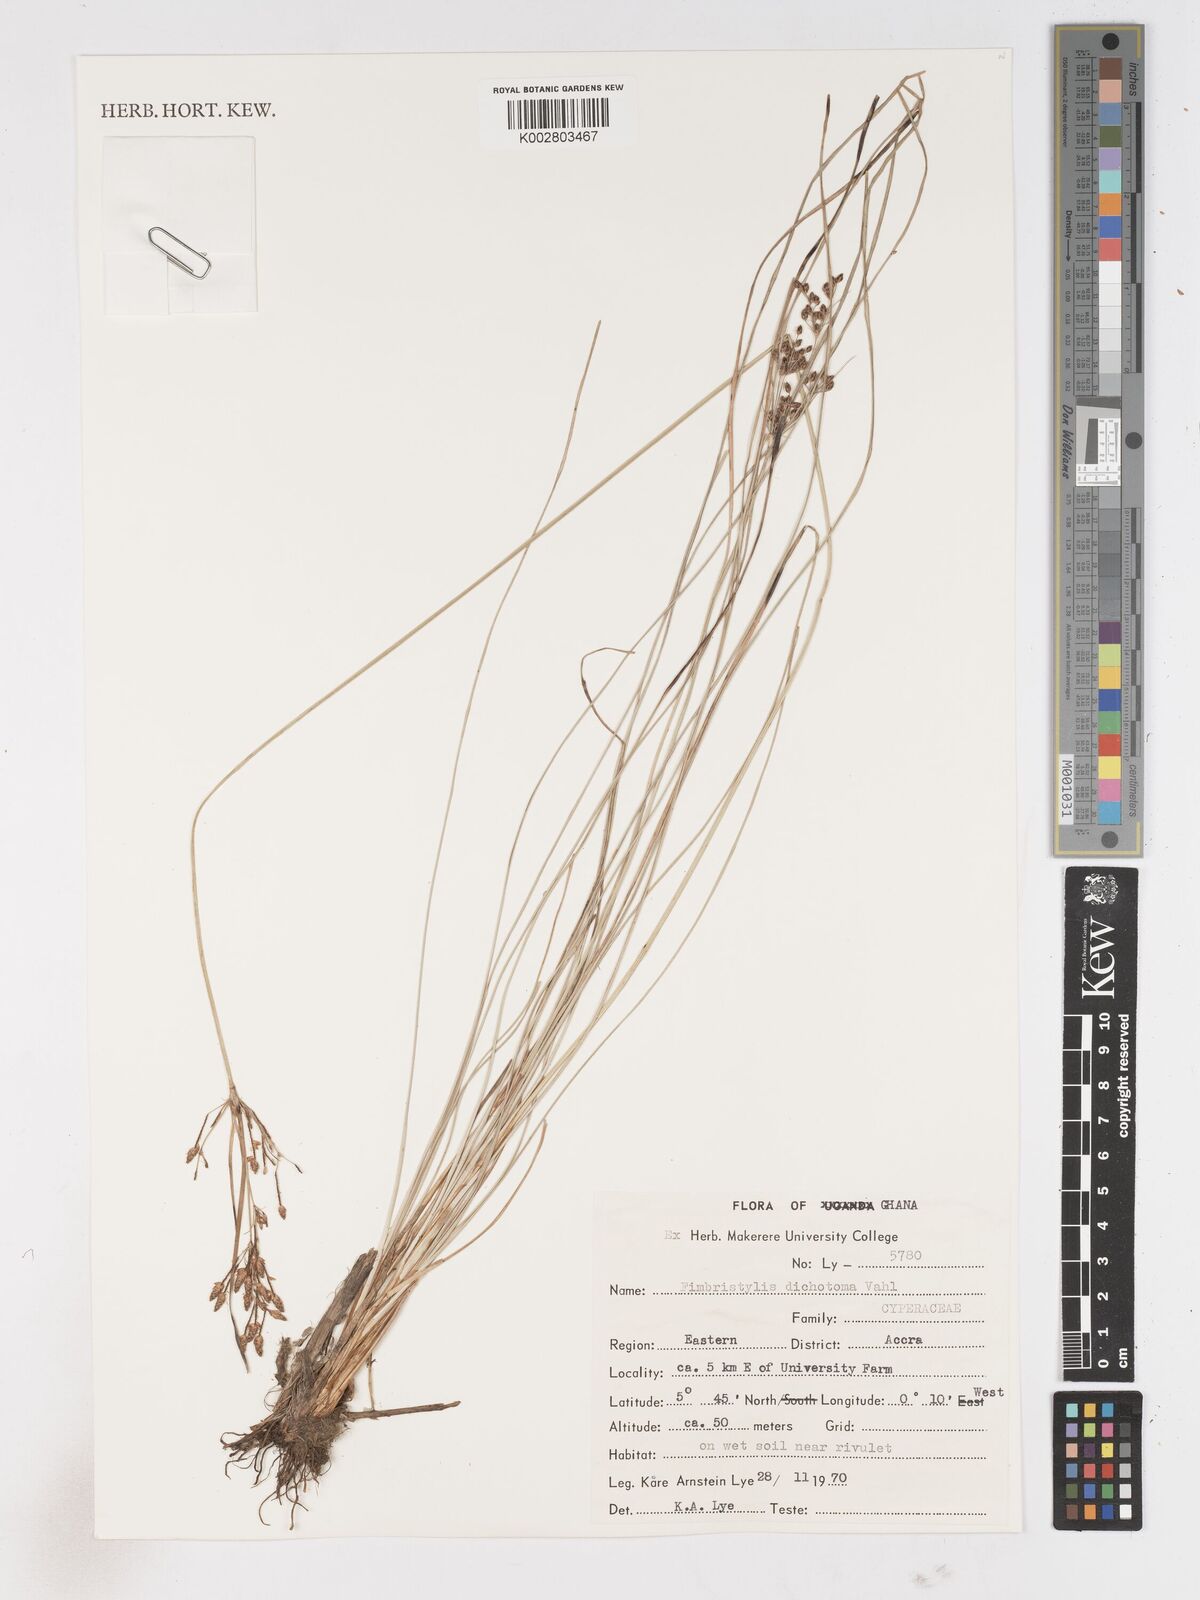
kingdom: Plantae
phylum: Tracheophyta
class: Liliopsida
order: Poales
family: Cyperaceae
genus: Fimbristylis
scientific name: Fimbristylis dichotoma
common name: Forked fimbry
